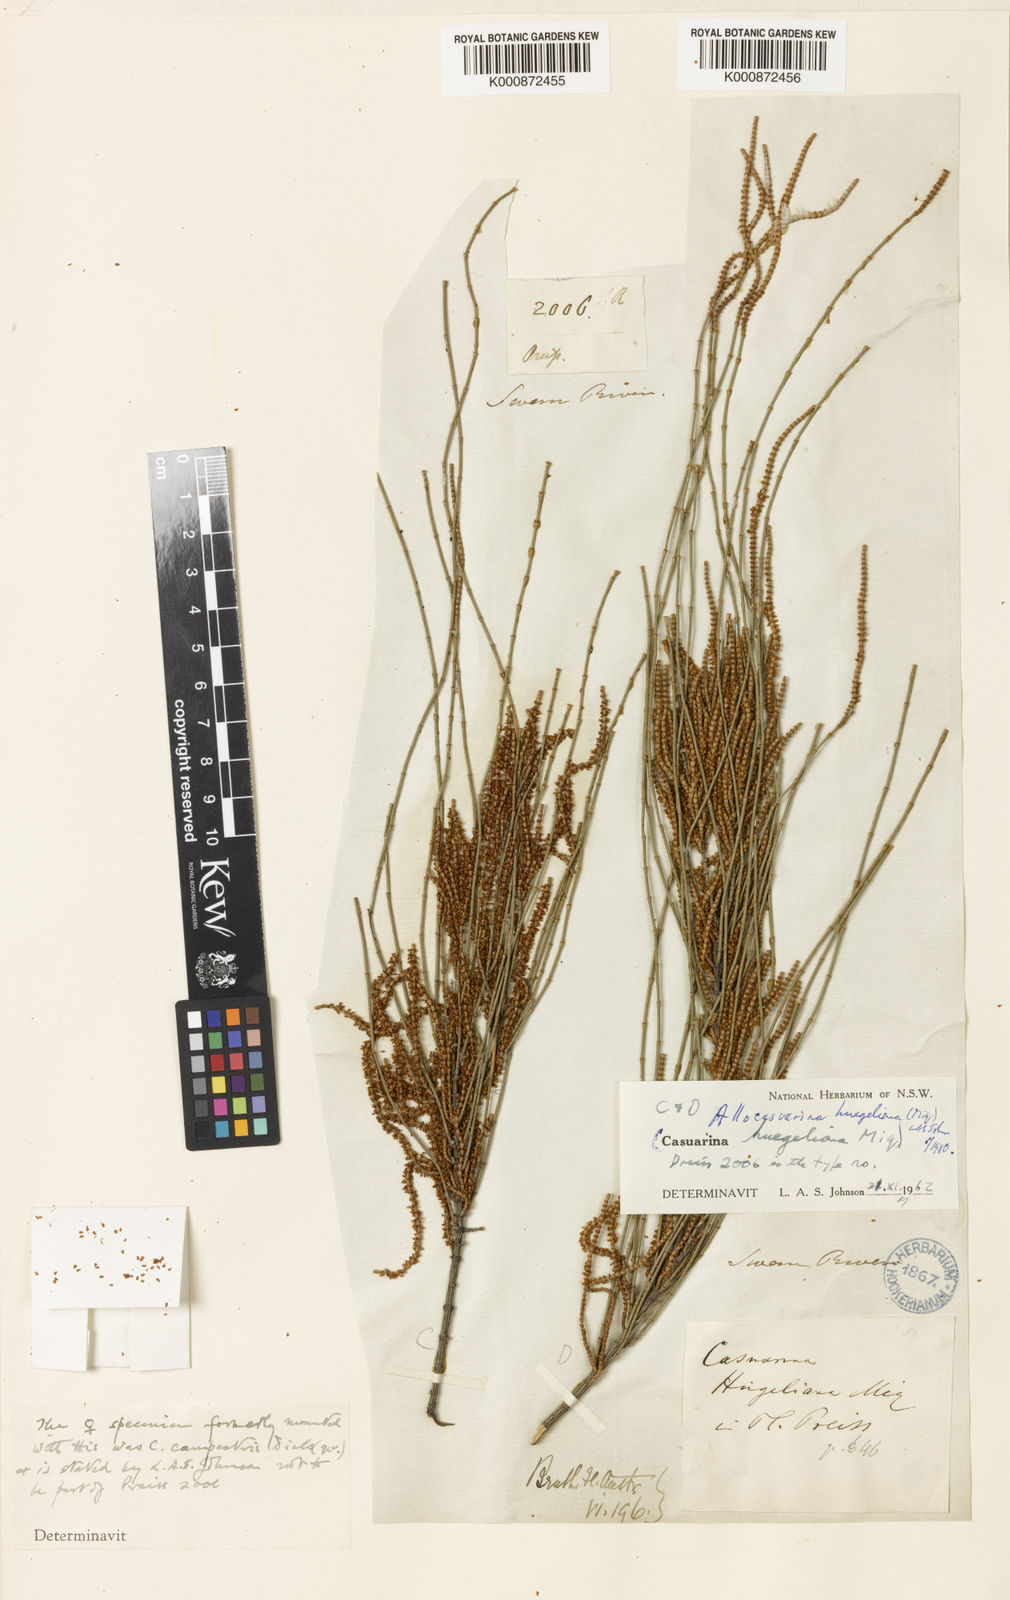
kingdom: Plantae
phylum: Tracheophyta
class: Magnoliopsida
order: Fagales
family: Casuarinaceae
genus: Allocasuarina
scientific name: Allocasuarina huegeliana
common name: Rock she-oak
